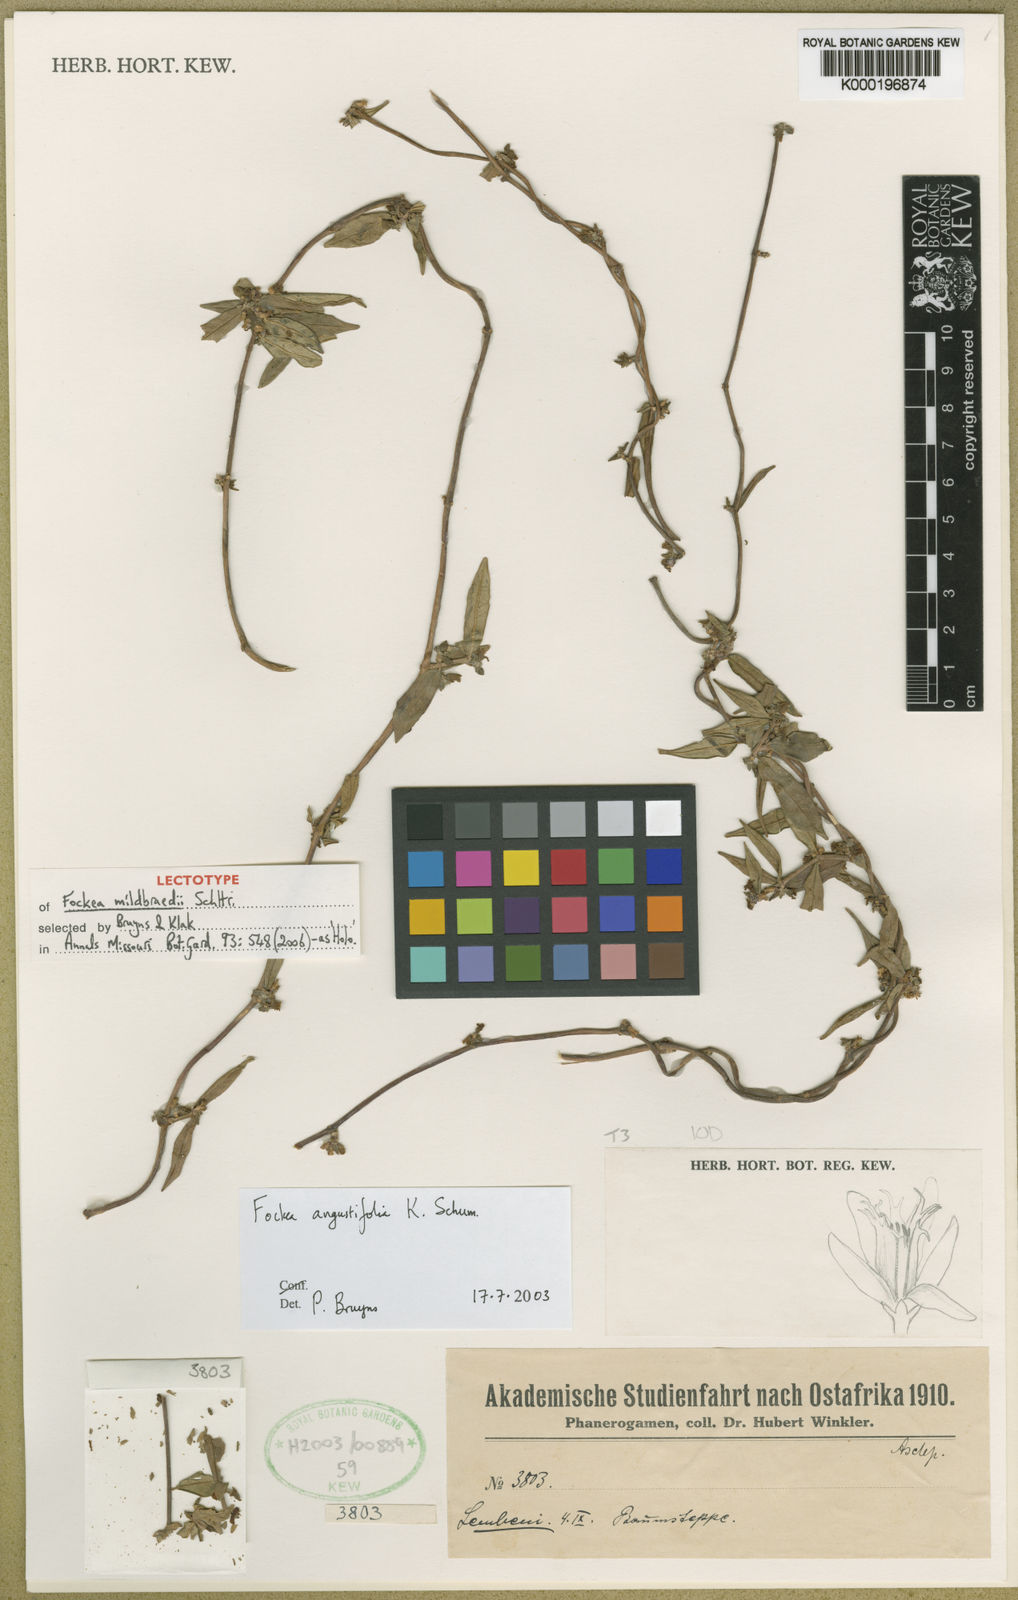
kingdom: Plantae
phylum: Tracheophyta
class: Magnoliopsida
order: Gentianales
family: Apocynaceae
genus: Fockea
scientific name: Fockea angustifolia
